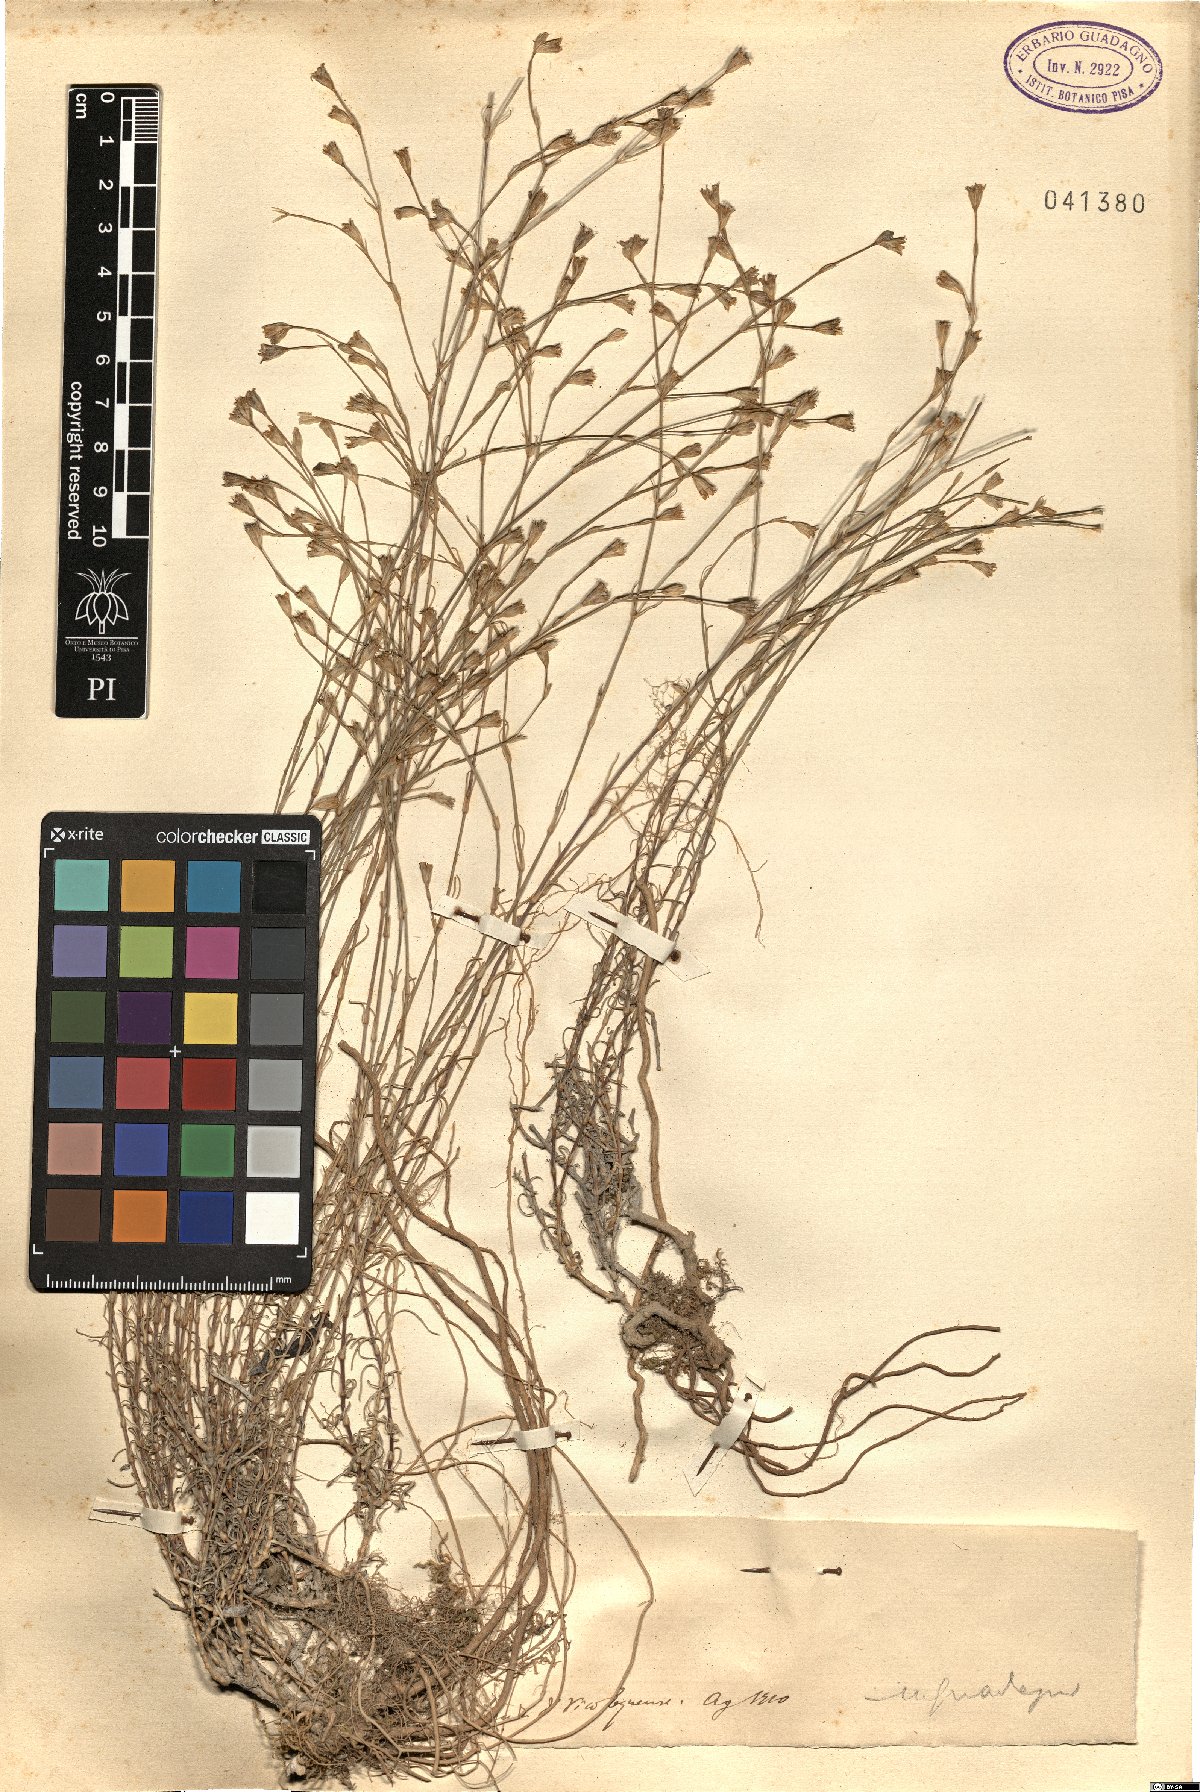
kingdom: Plantae
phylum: Tracheophyta
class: Magnoliopsida
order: Caryophyllales
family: Caryophyllaceae
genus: Tunica
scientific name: Tunica
